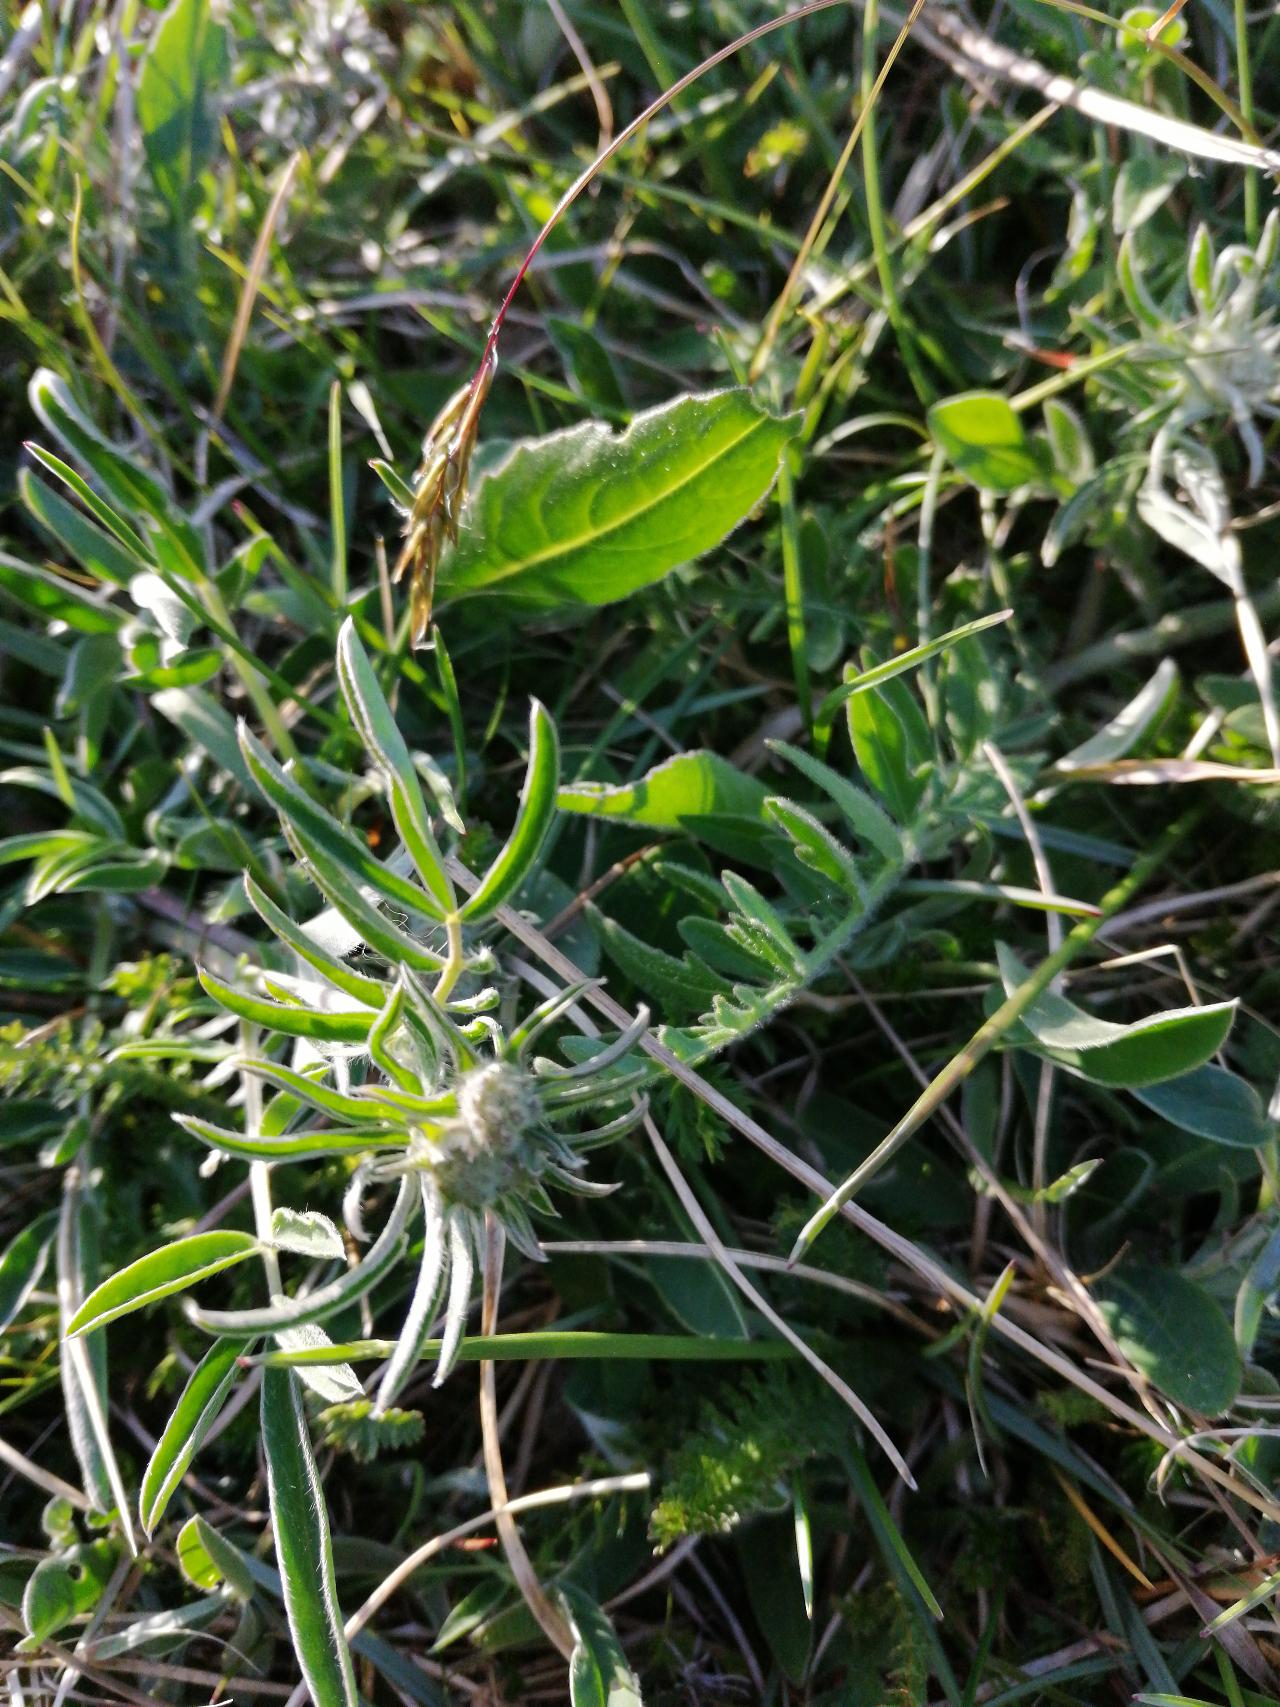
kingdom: Plantae
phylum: Tracheophyta
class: Magnoliopsida
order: Fabales
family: Fabaceae
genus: Anthyllis
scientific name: Anthyllis vulneraria
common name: Rundbælg
